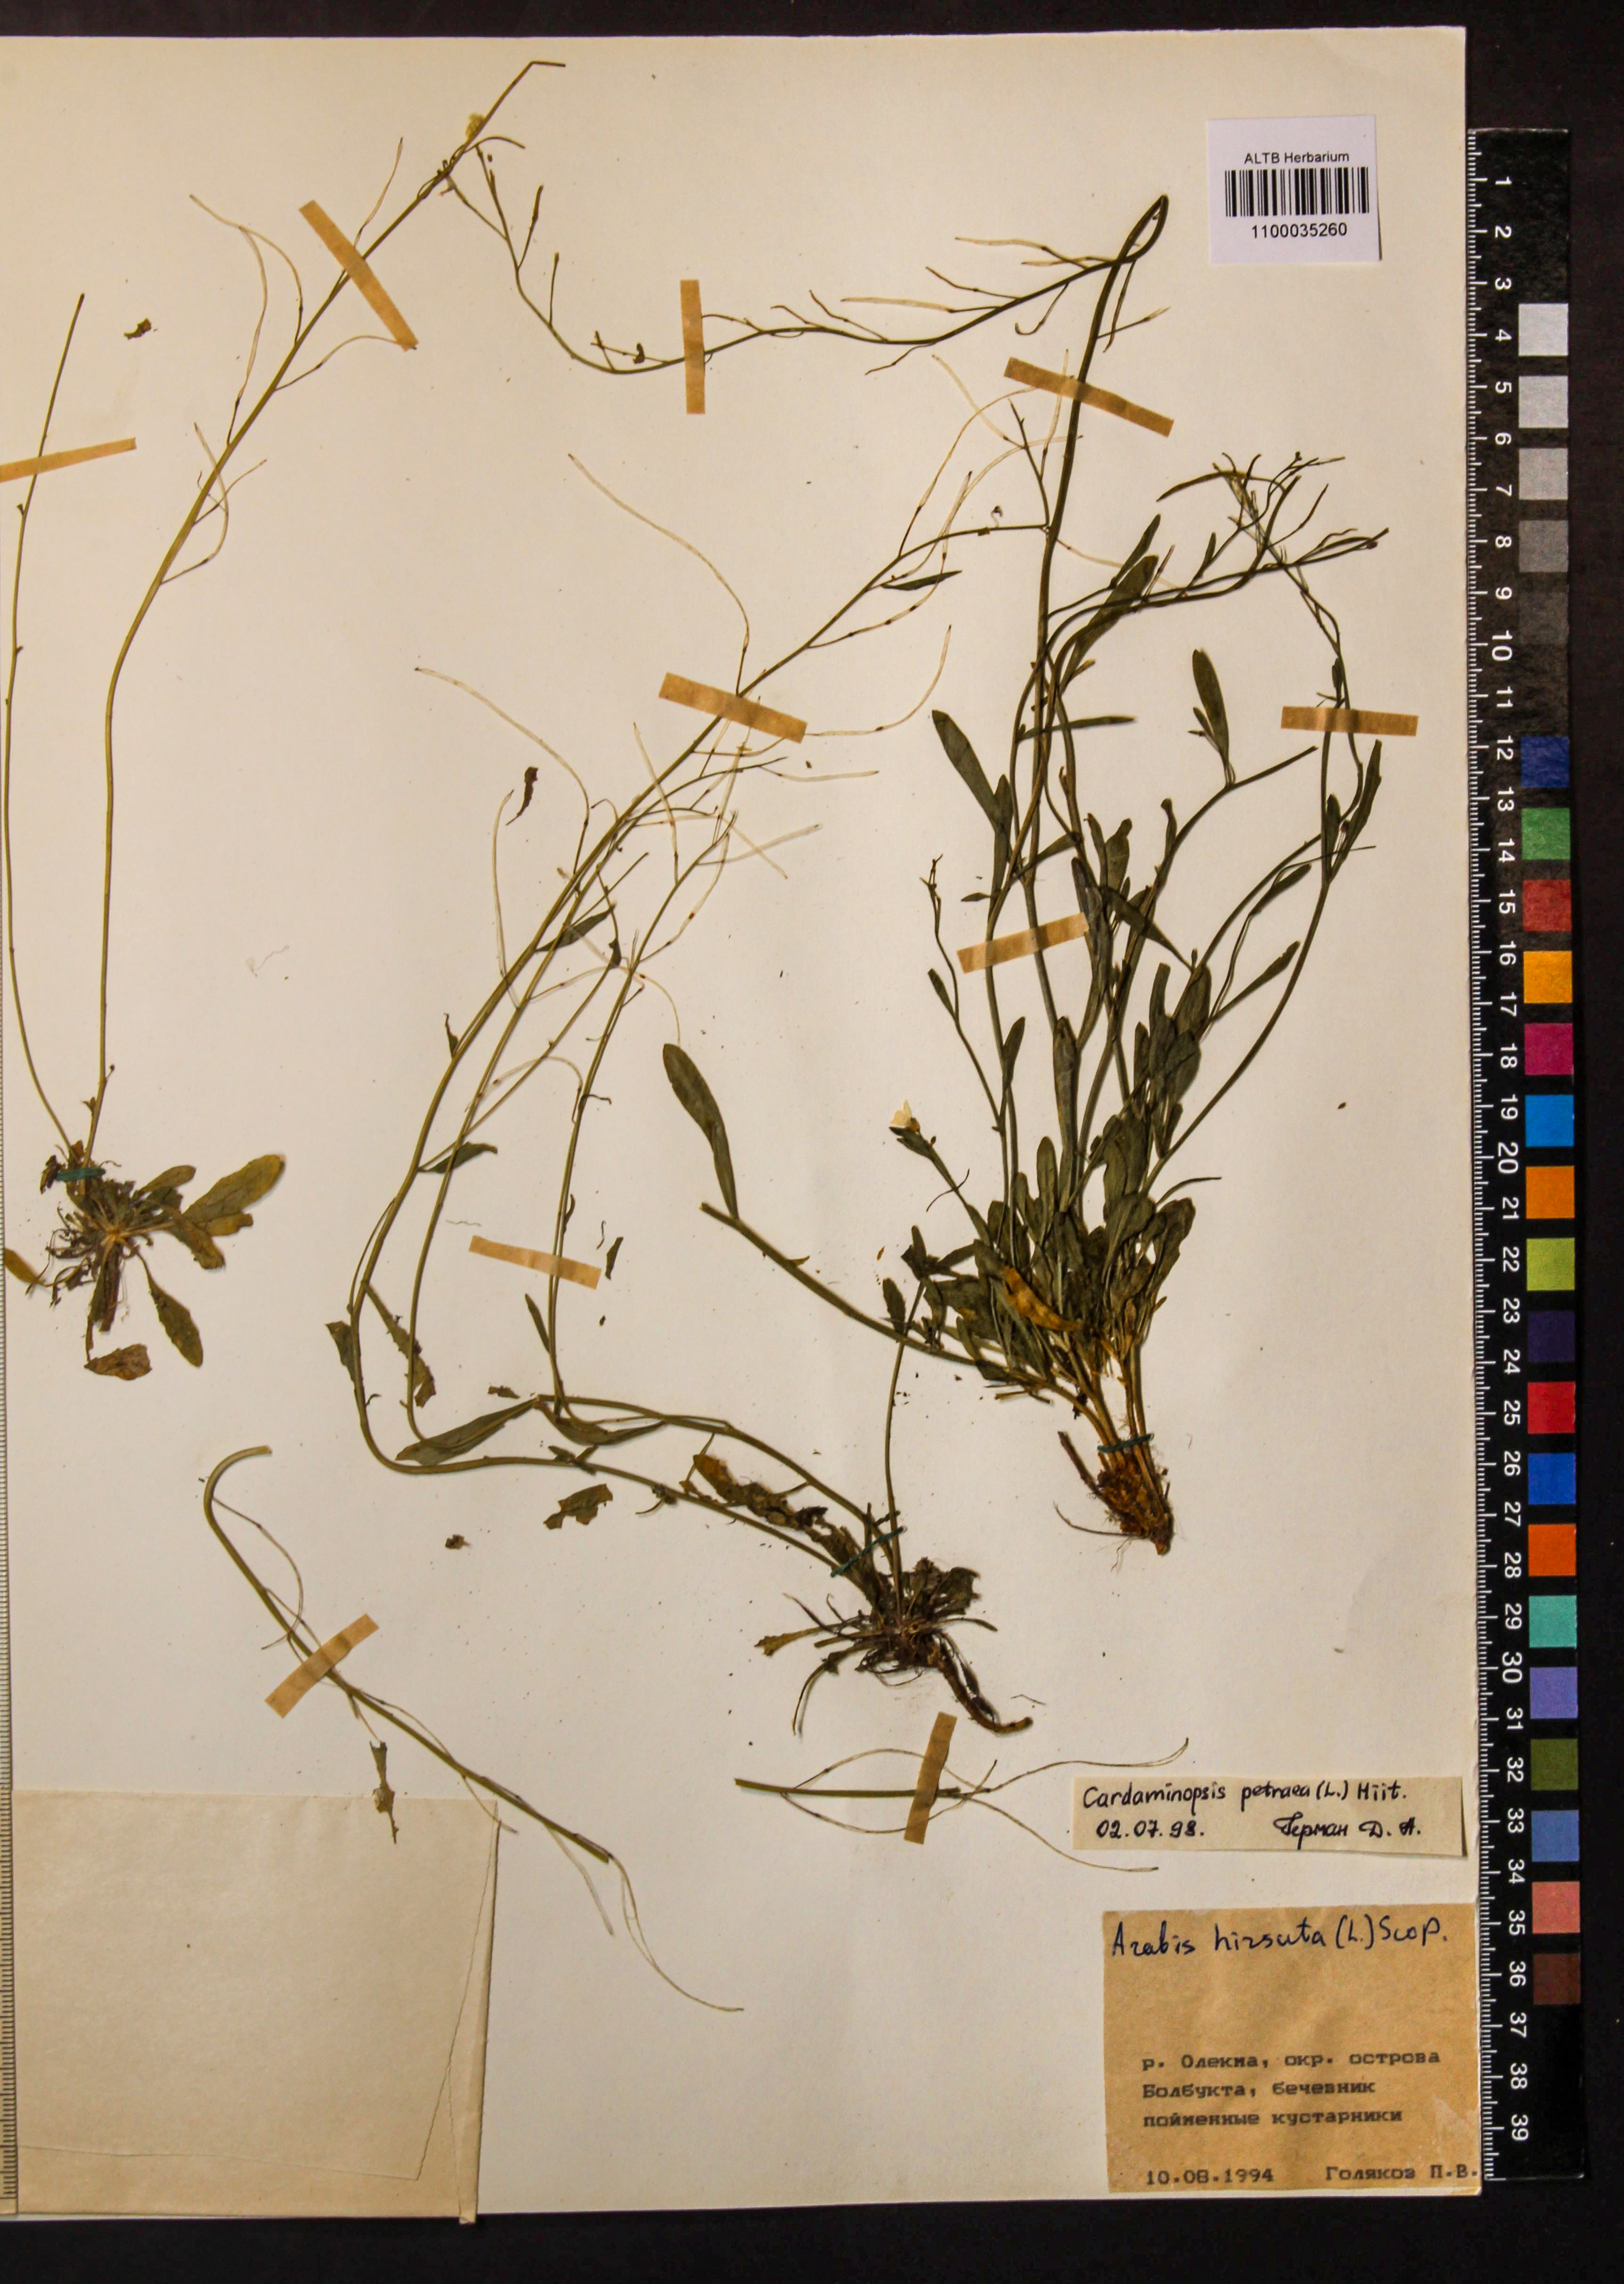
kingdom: Plantae
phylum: Tracheophyta
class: Magnoliopsida
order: Brassicales
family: Brassicaceae
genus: Arabidopsis
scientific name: Arabidopsis lyrata
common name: Lyrate rockcress
